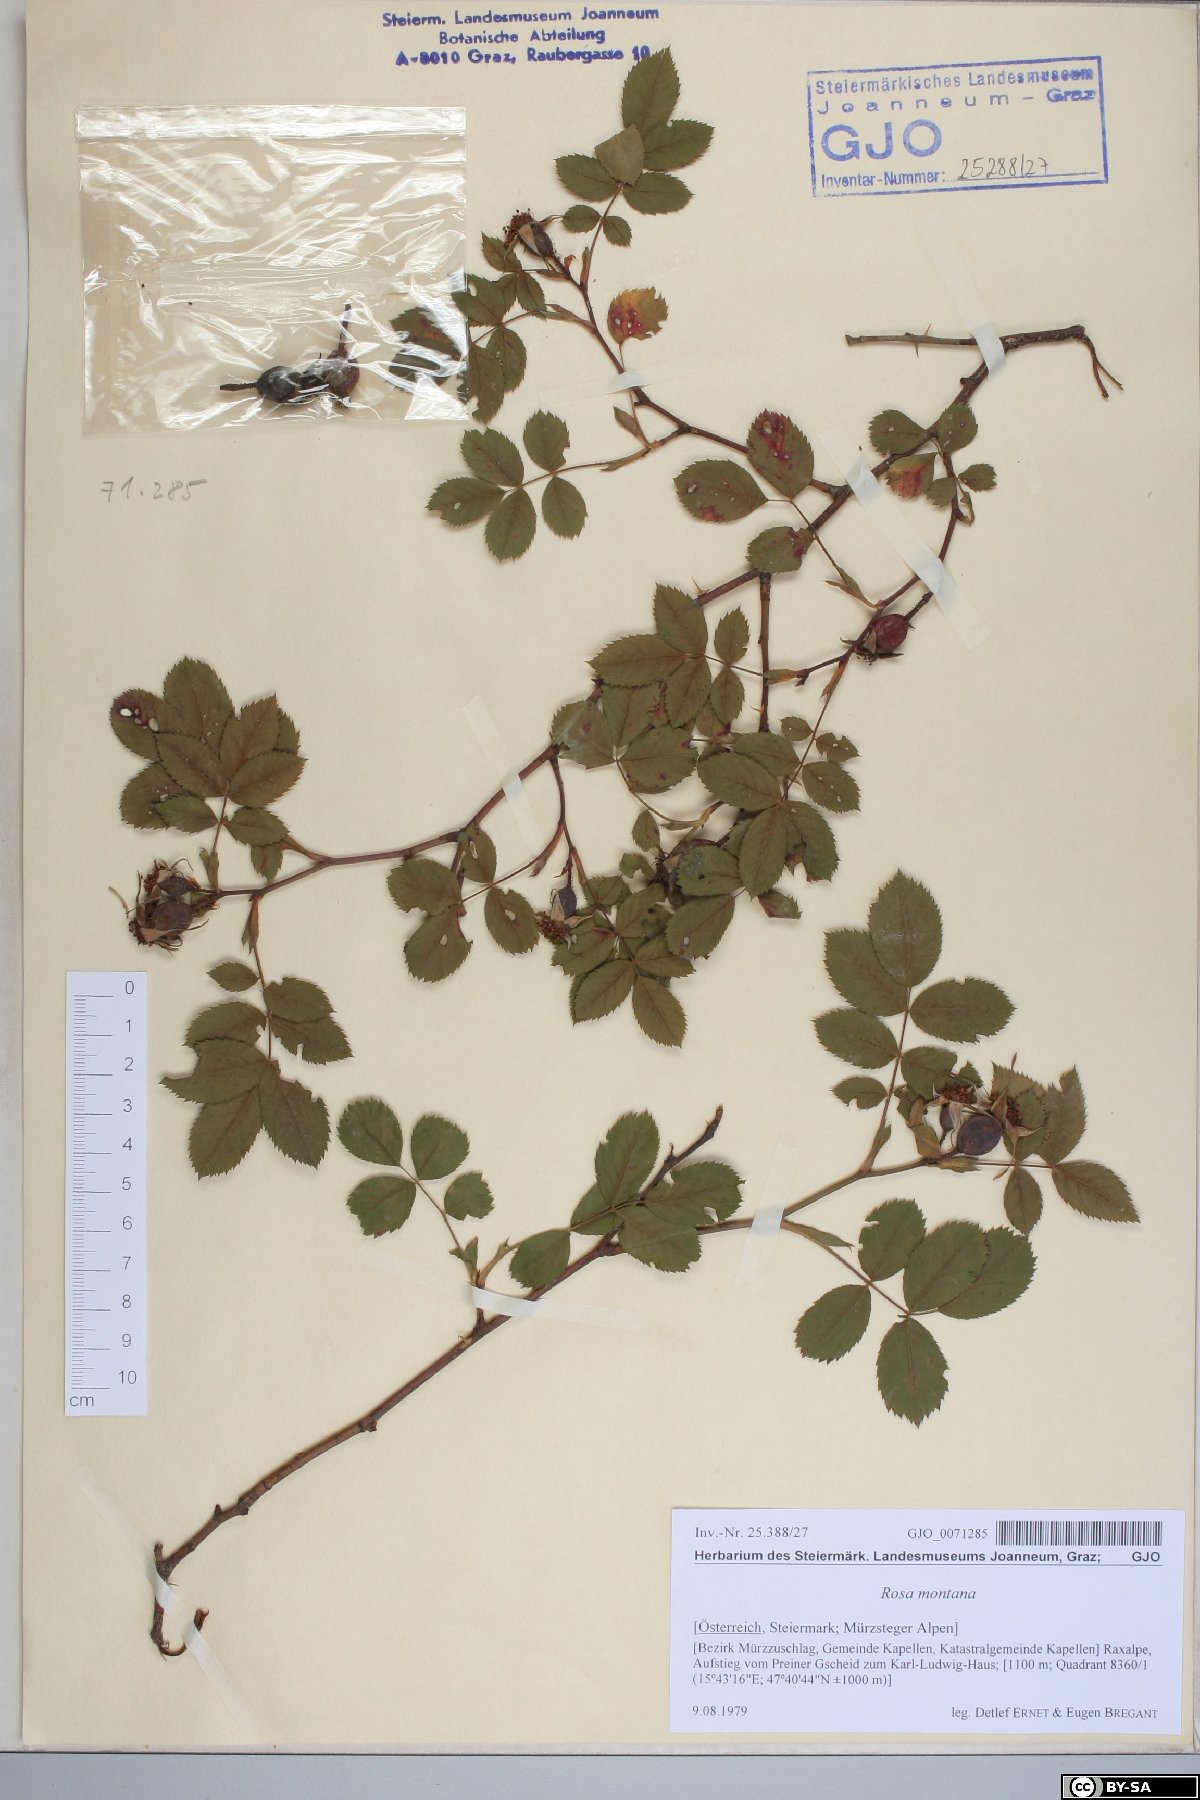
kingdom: Plantae
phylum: Tracheophyta
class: Magnoliopsida
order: Rosales
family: Rosaceae
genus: Rosa
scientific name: Rosa montana
